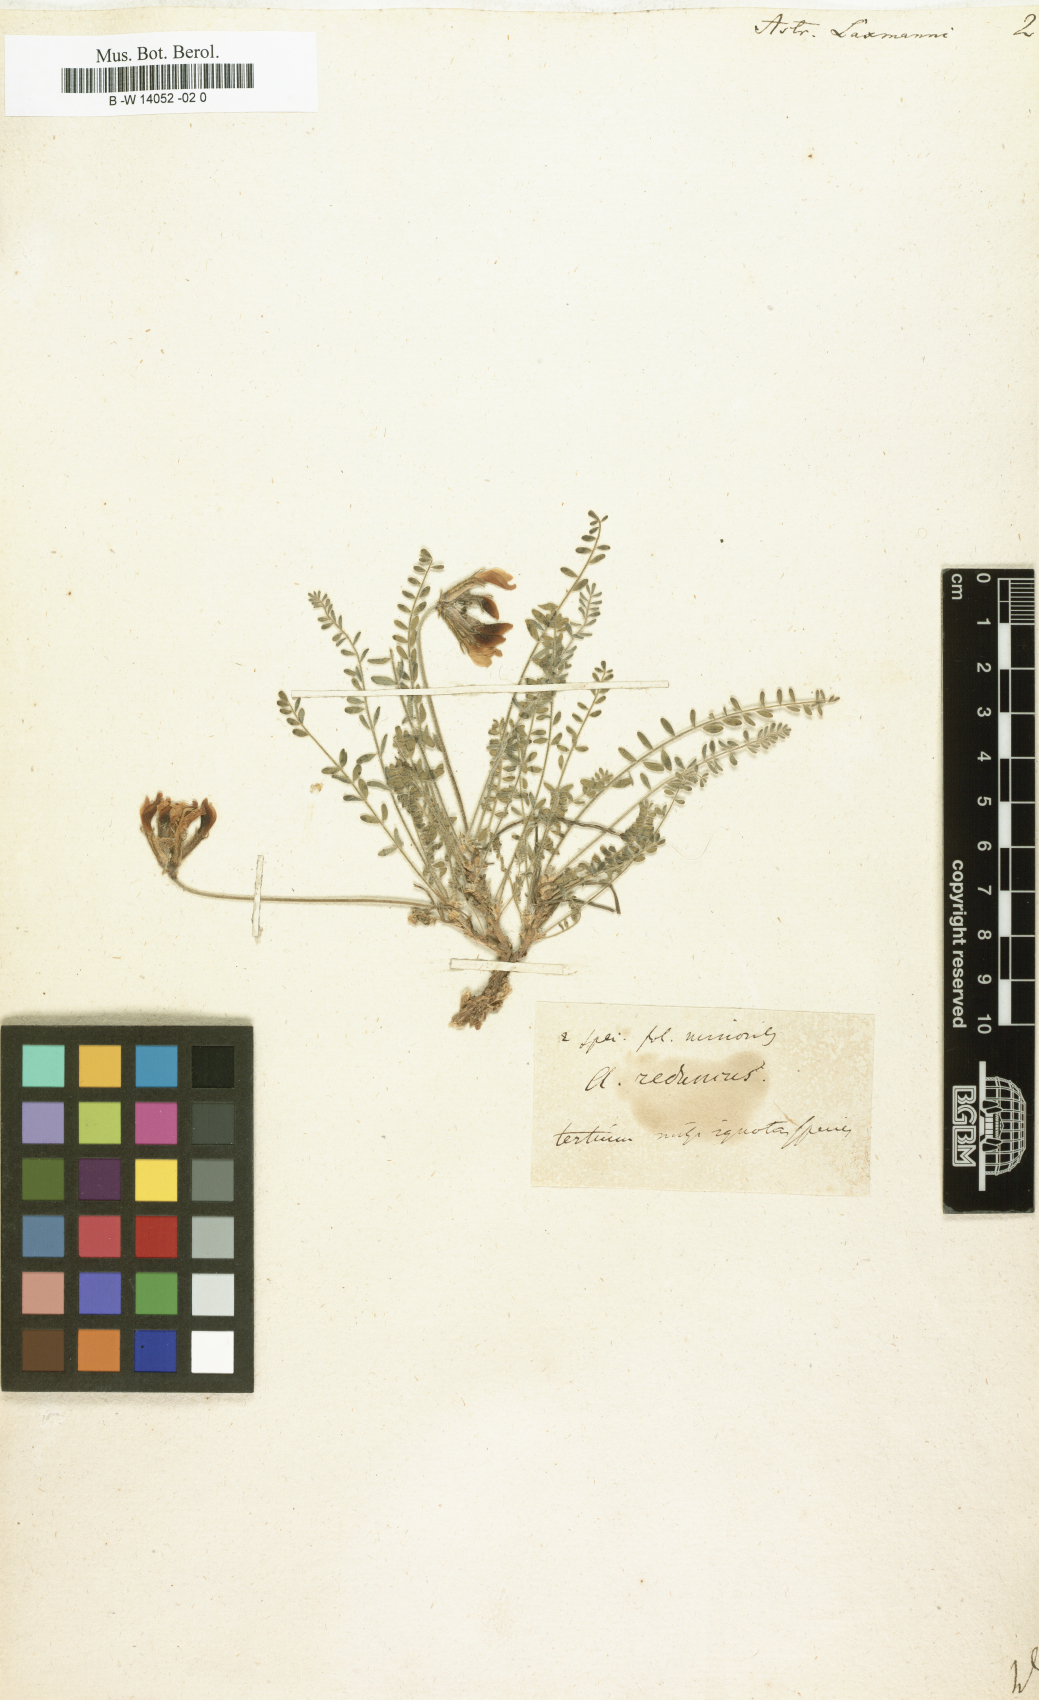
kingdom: Plantae
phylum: Tracheophyta
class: Magnoliopsida
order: Fabales
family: Fabaceae
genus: Astragalus
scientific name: Astragalus laxmannii
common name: Laxmann's milk-vetch
